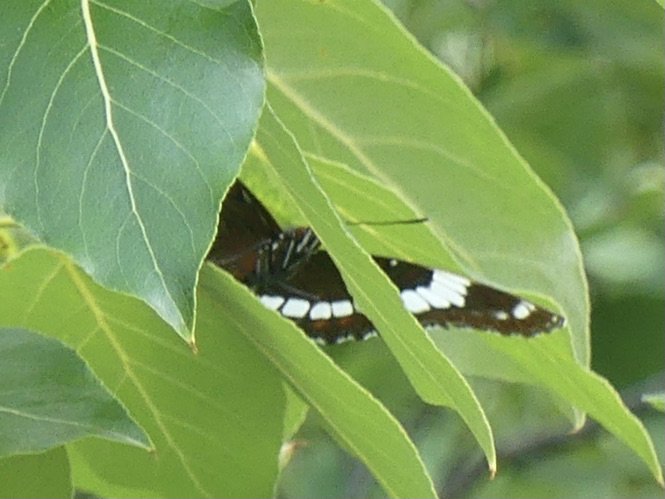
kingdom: Animalia
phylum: Arthropoda
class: Insecta
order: Lepidoptera
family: Nymphalidae
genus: Limenitis
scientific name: Limenitis arthemis
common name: Red-spotted Admiral
